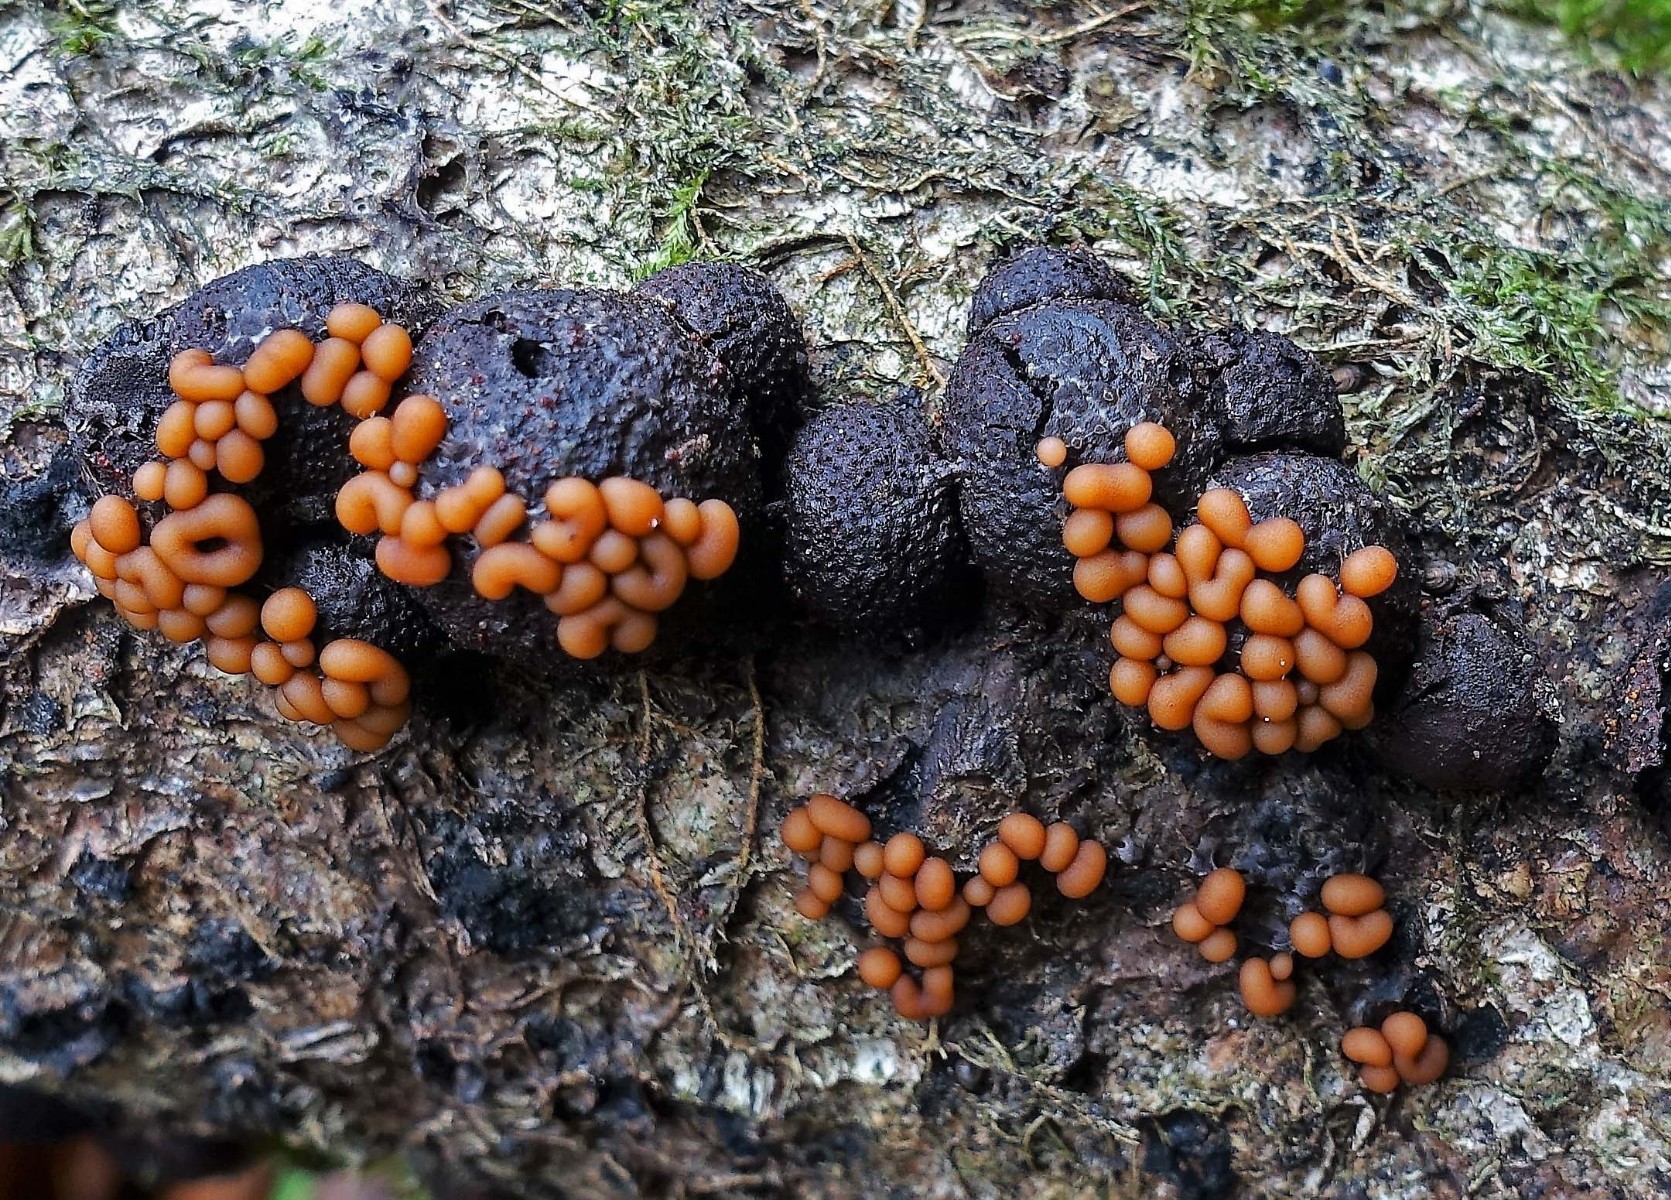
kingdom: Protozoa
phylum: Mycetozoa
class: Myxomycetes
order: Trichiales
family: Trichiaceae
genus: Trichia
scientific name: Trichia contorta
